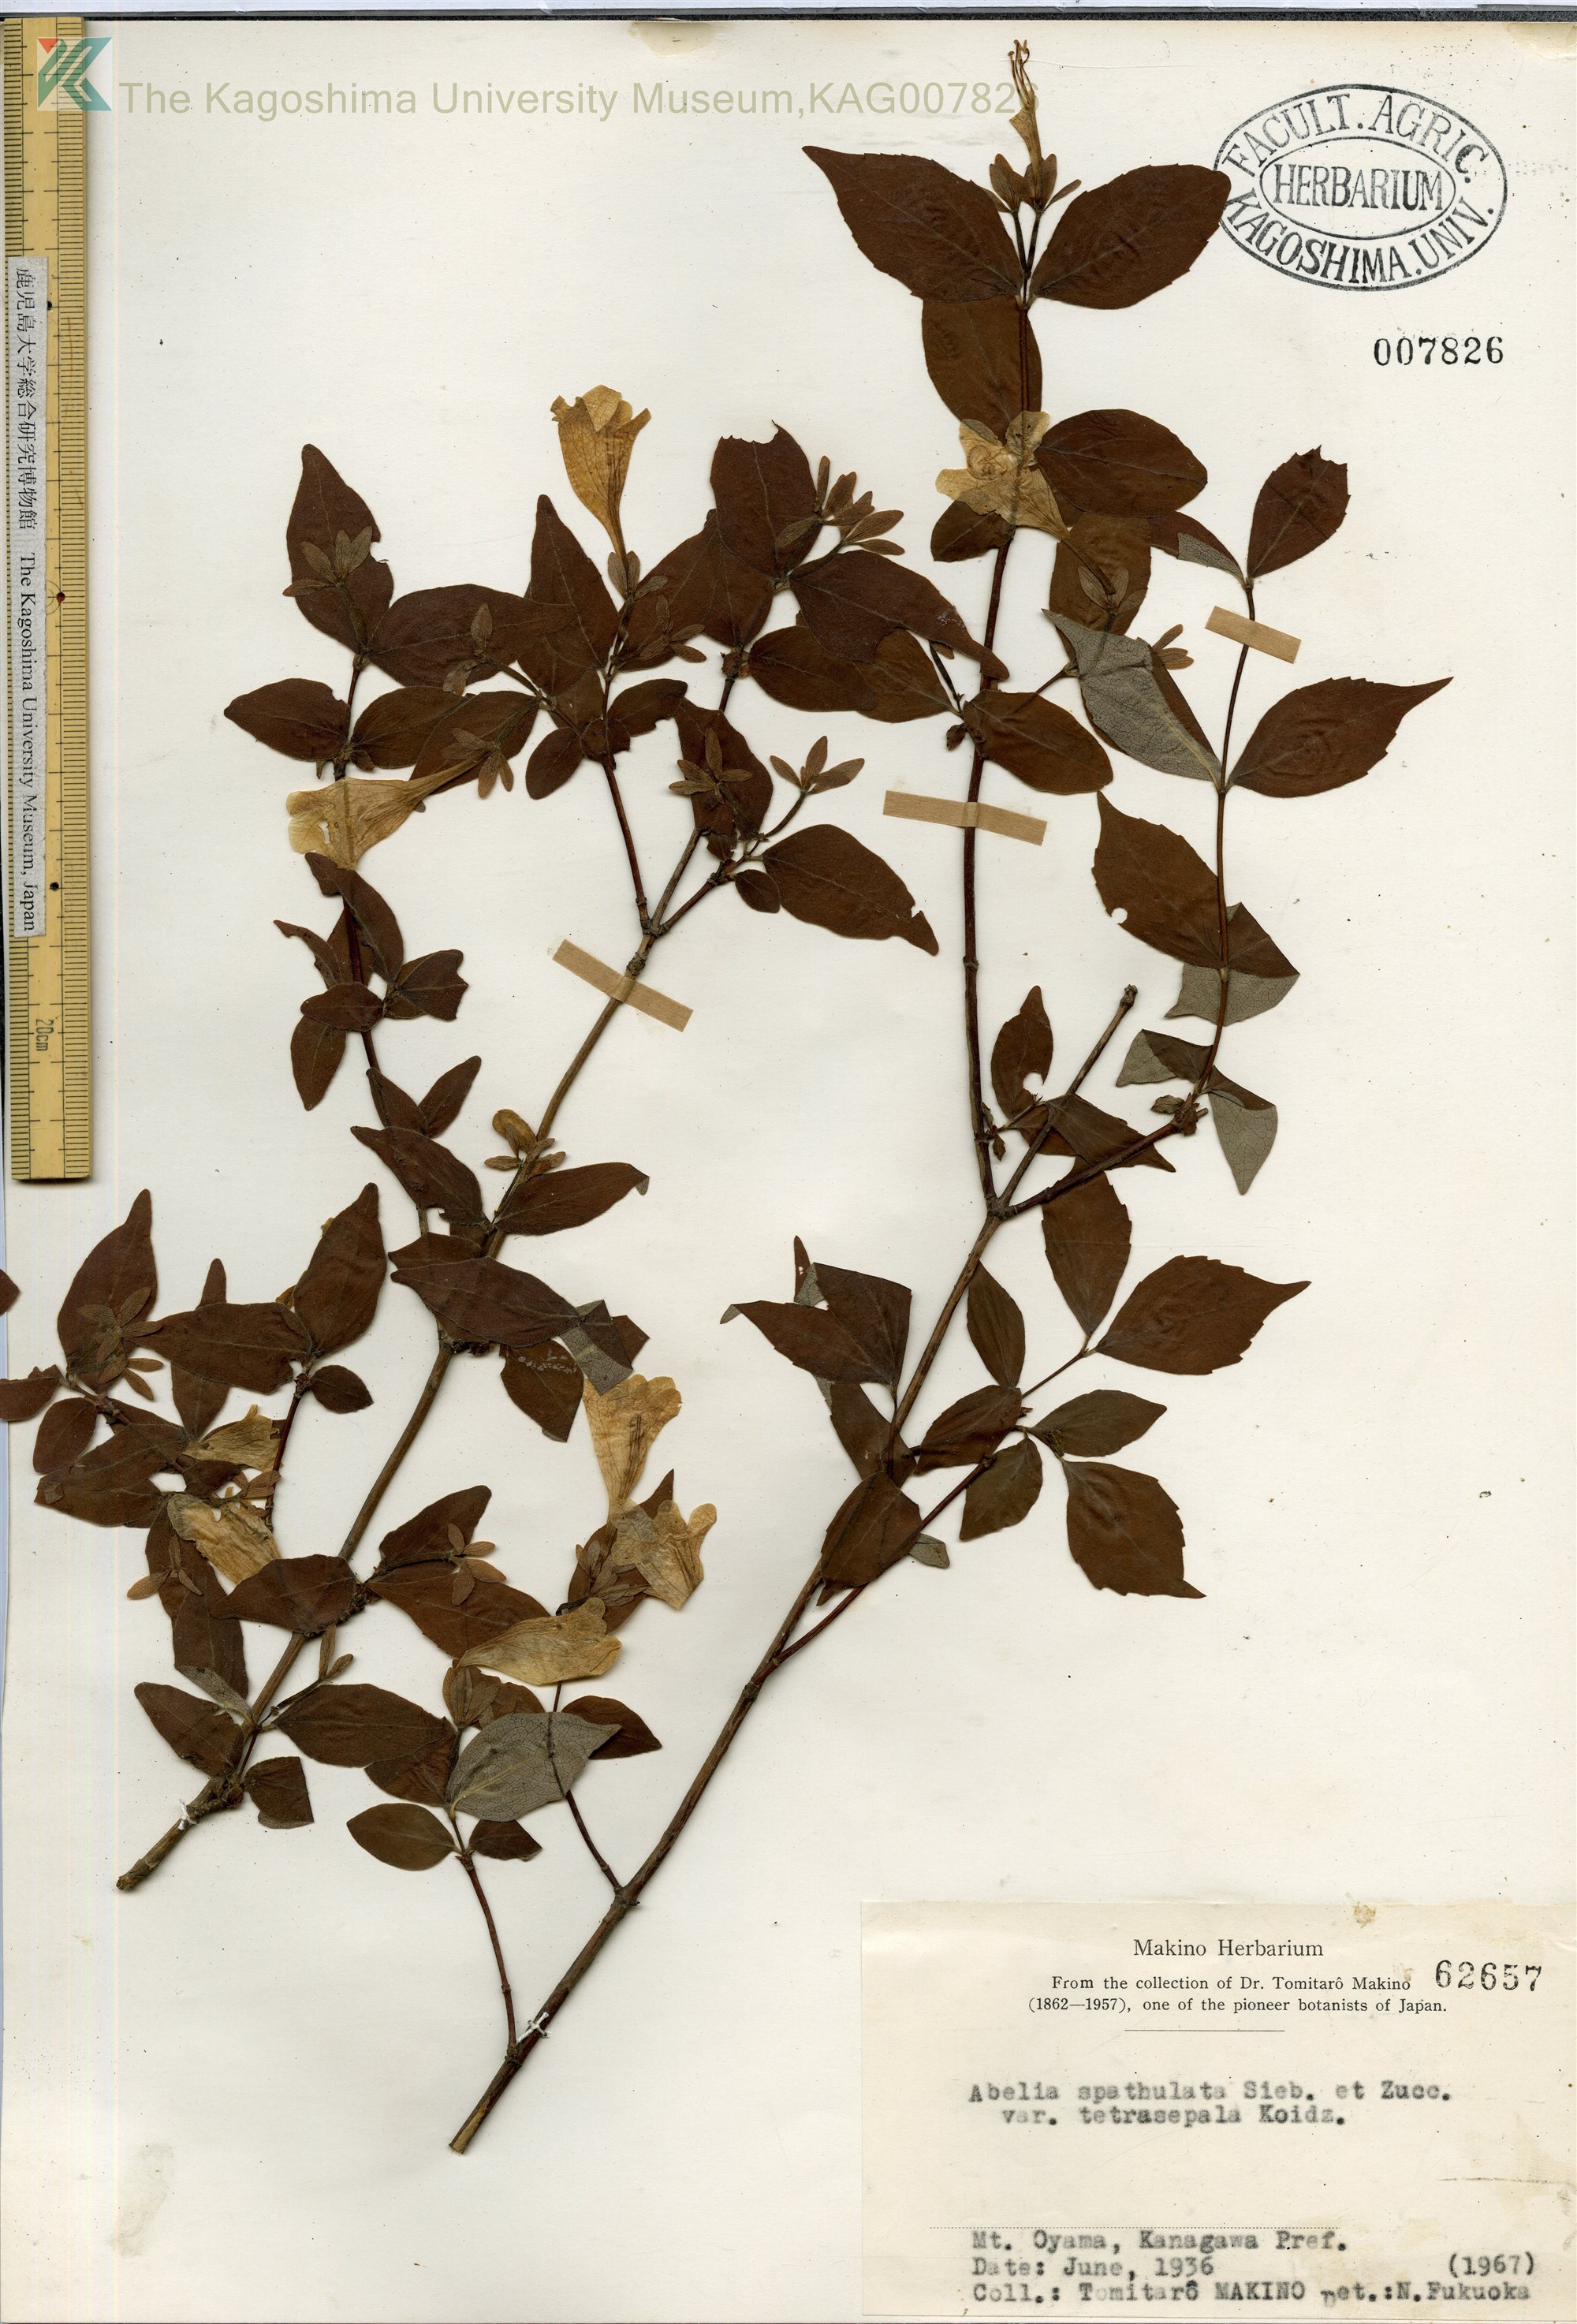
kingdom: Plantae
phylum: Tracheophyta
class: Magnoliopsida
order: Dipsacales
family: Caprifoliaceae
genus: Diabelia
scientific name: Diabelia ionostachya
